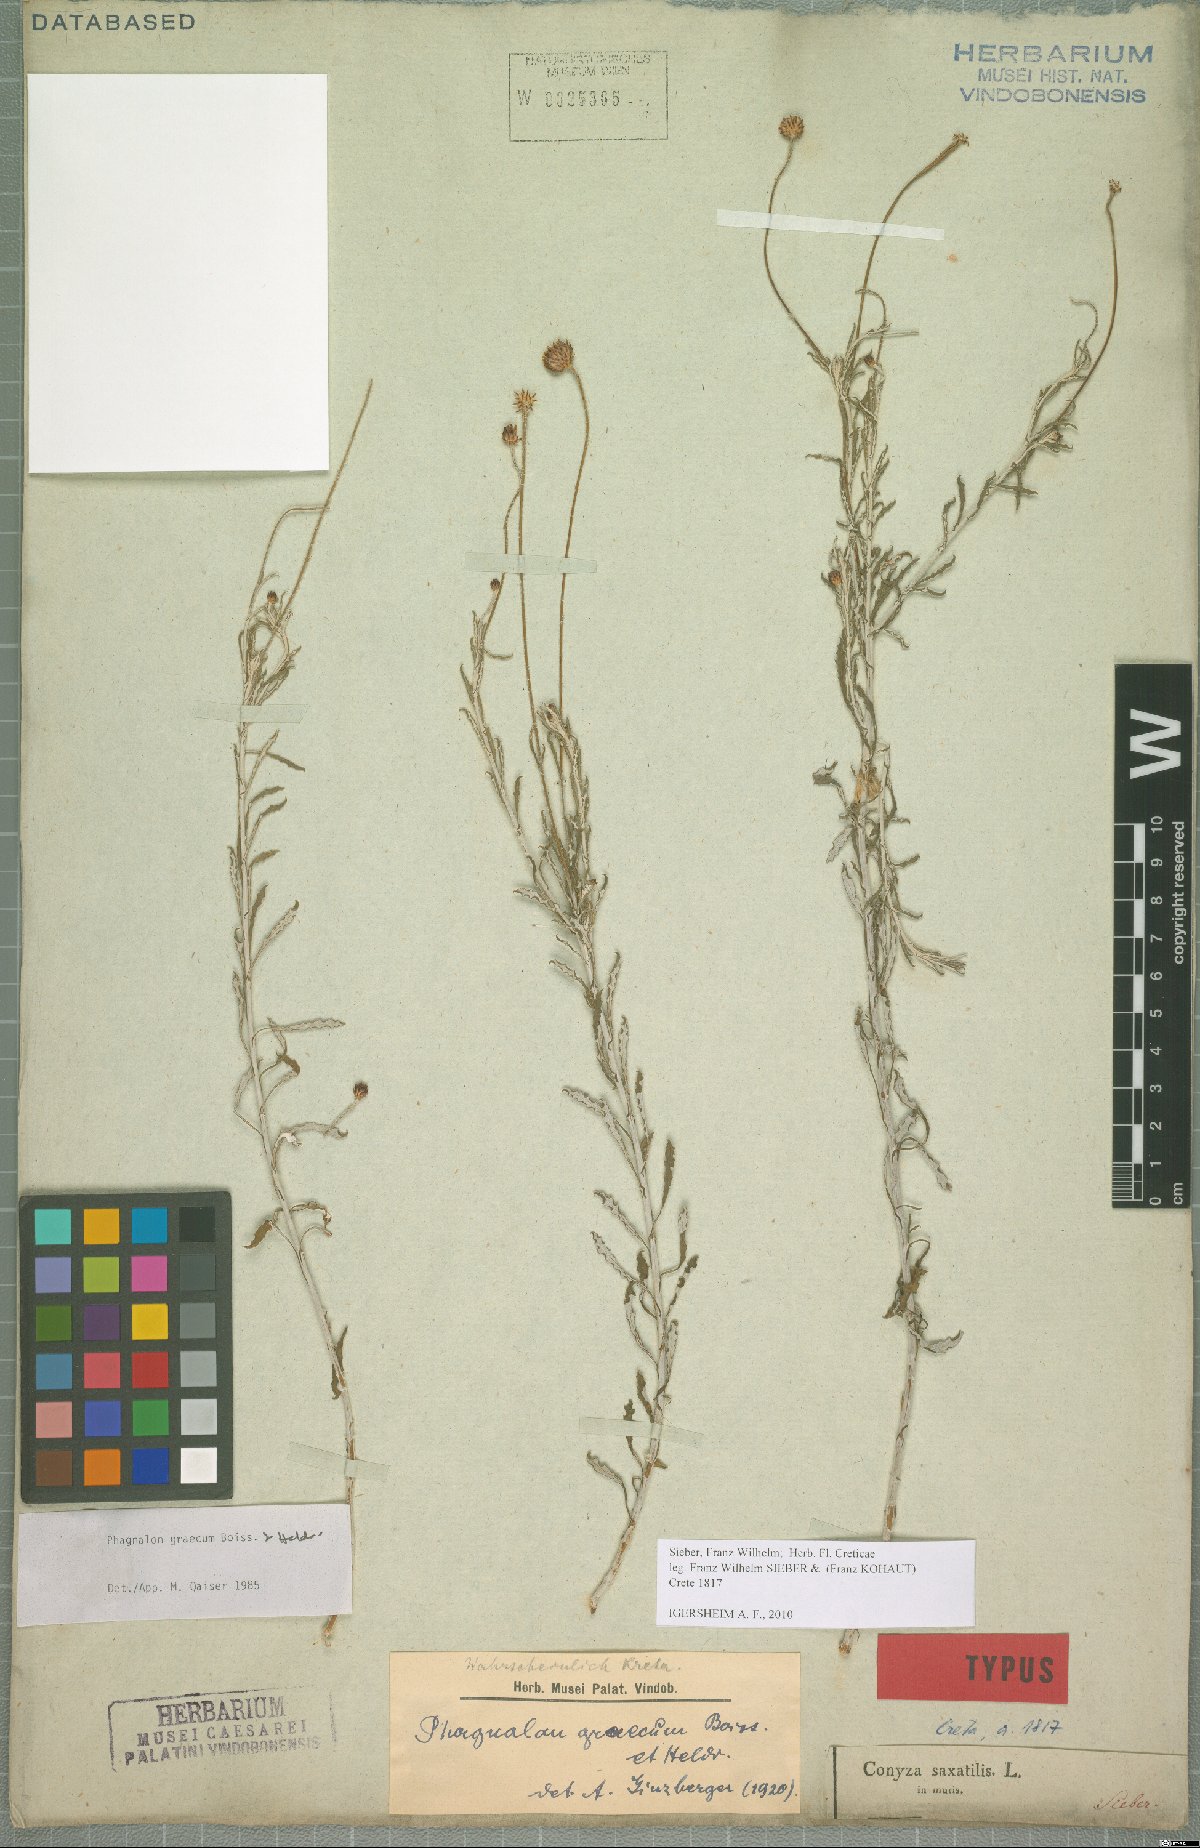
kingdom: Plantae
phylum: Tracheophyta
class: Magnoliopsida
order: Asterales
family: Asteraceae
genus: Phagnalon
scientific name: Phagnalon graecum
